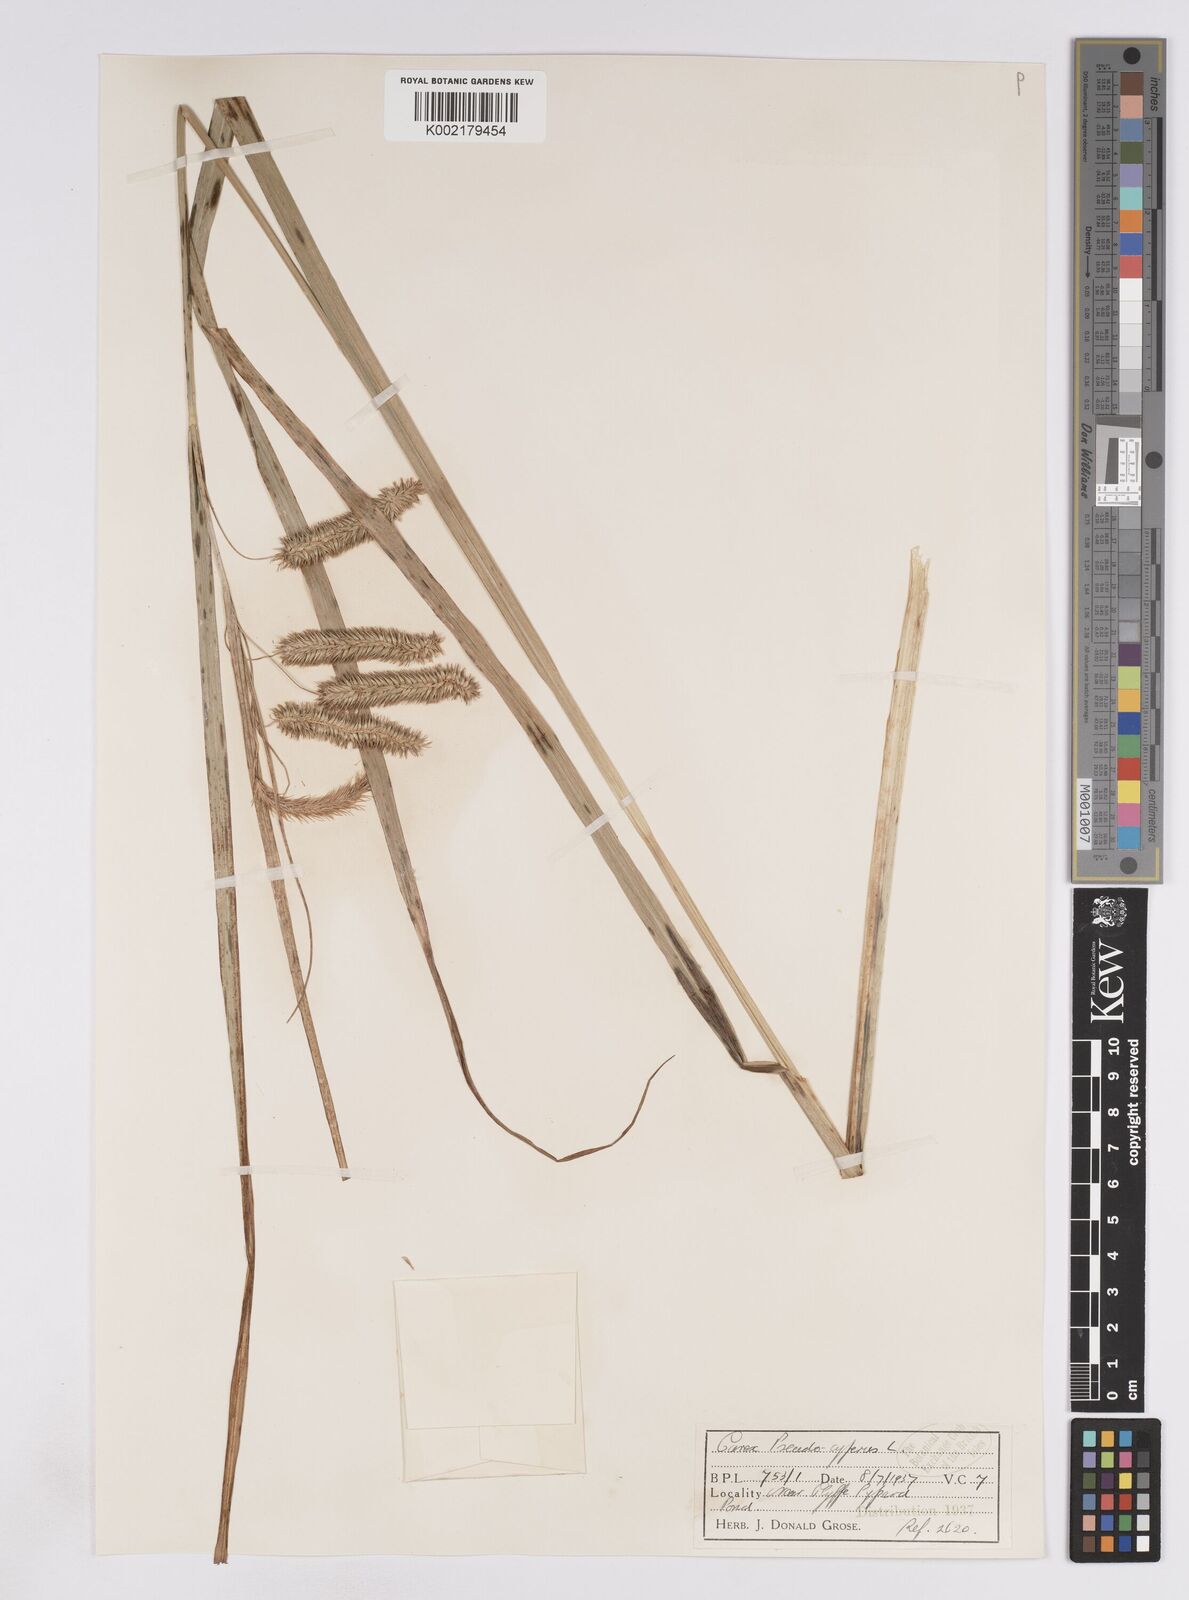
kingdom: Plantae
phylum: Tracheophyta
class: Liliopsida
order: Poales
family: Cyperaceae
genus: Carex
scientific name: Carex pseudocyperus
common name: Cyperus sedge
